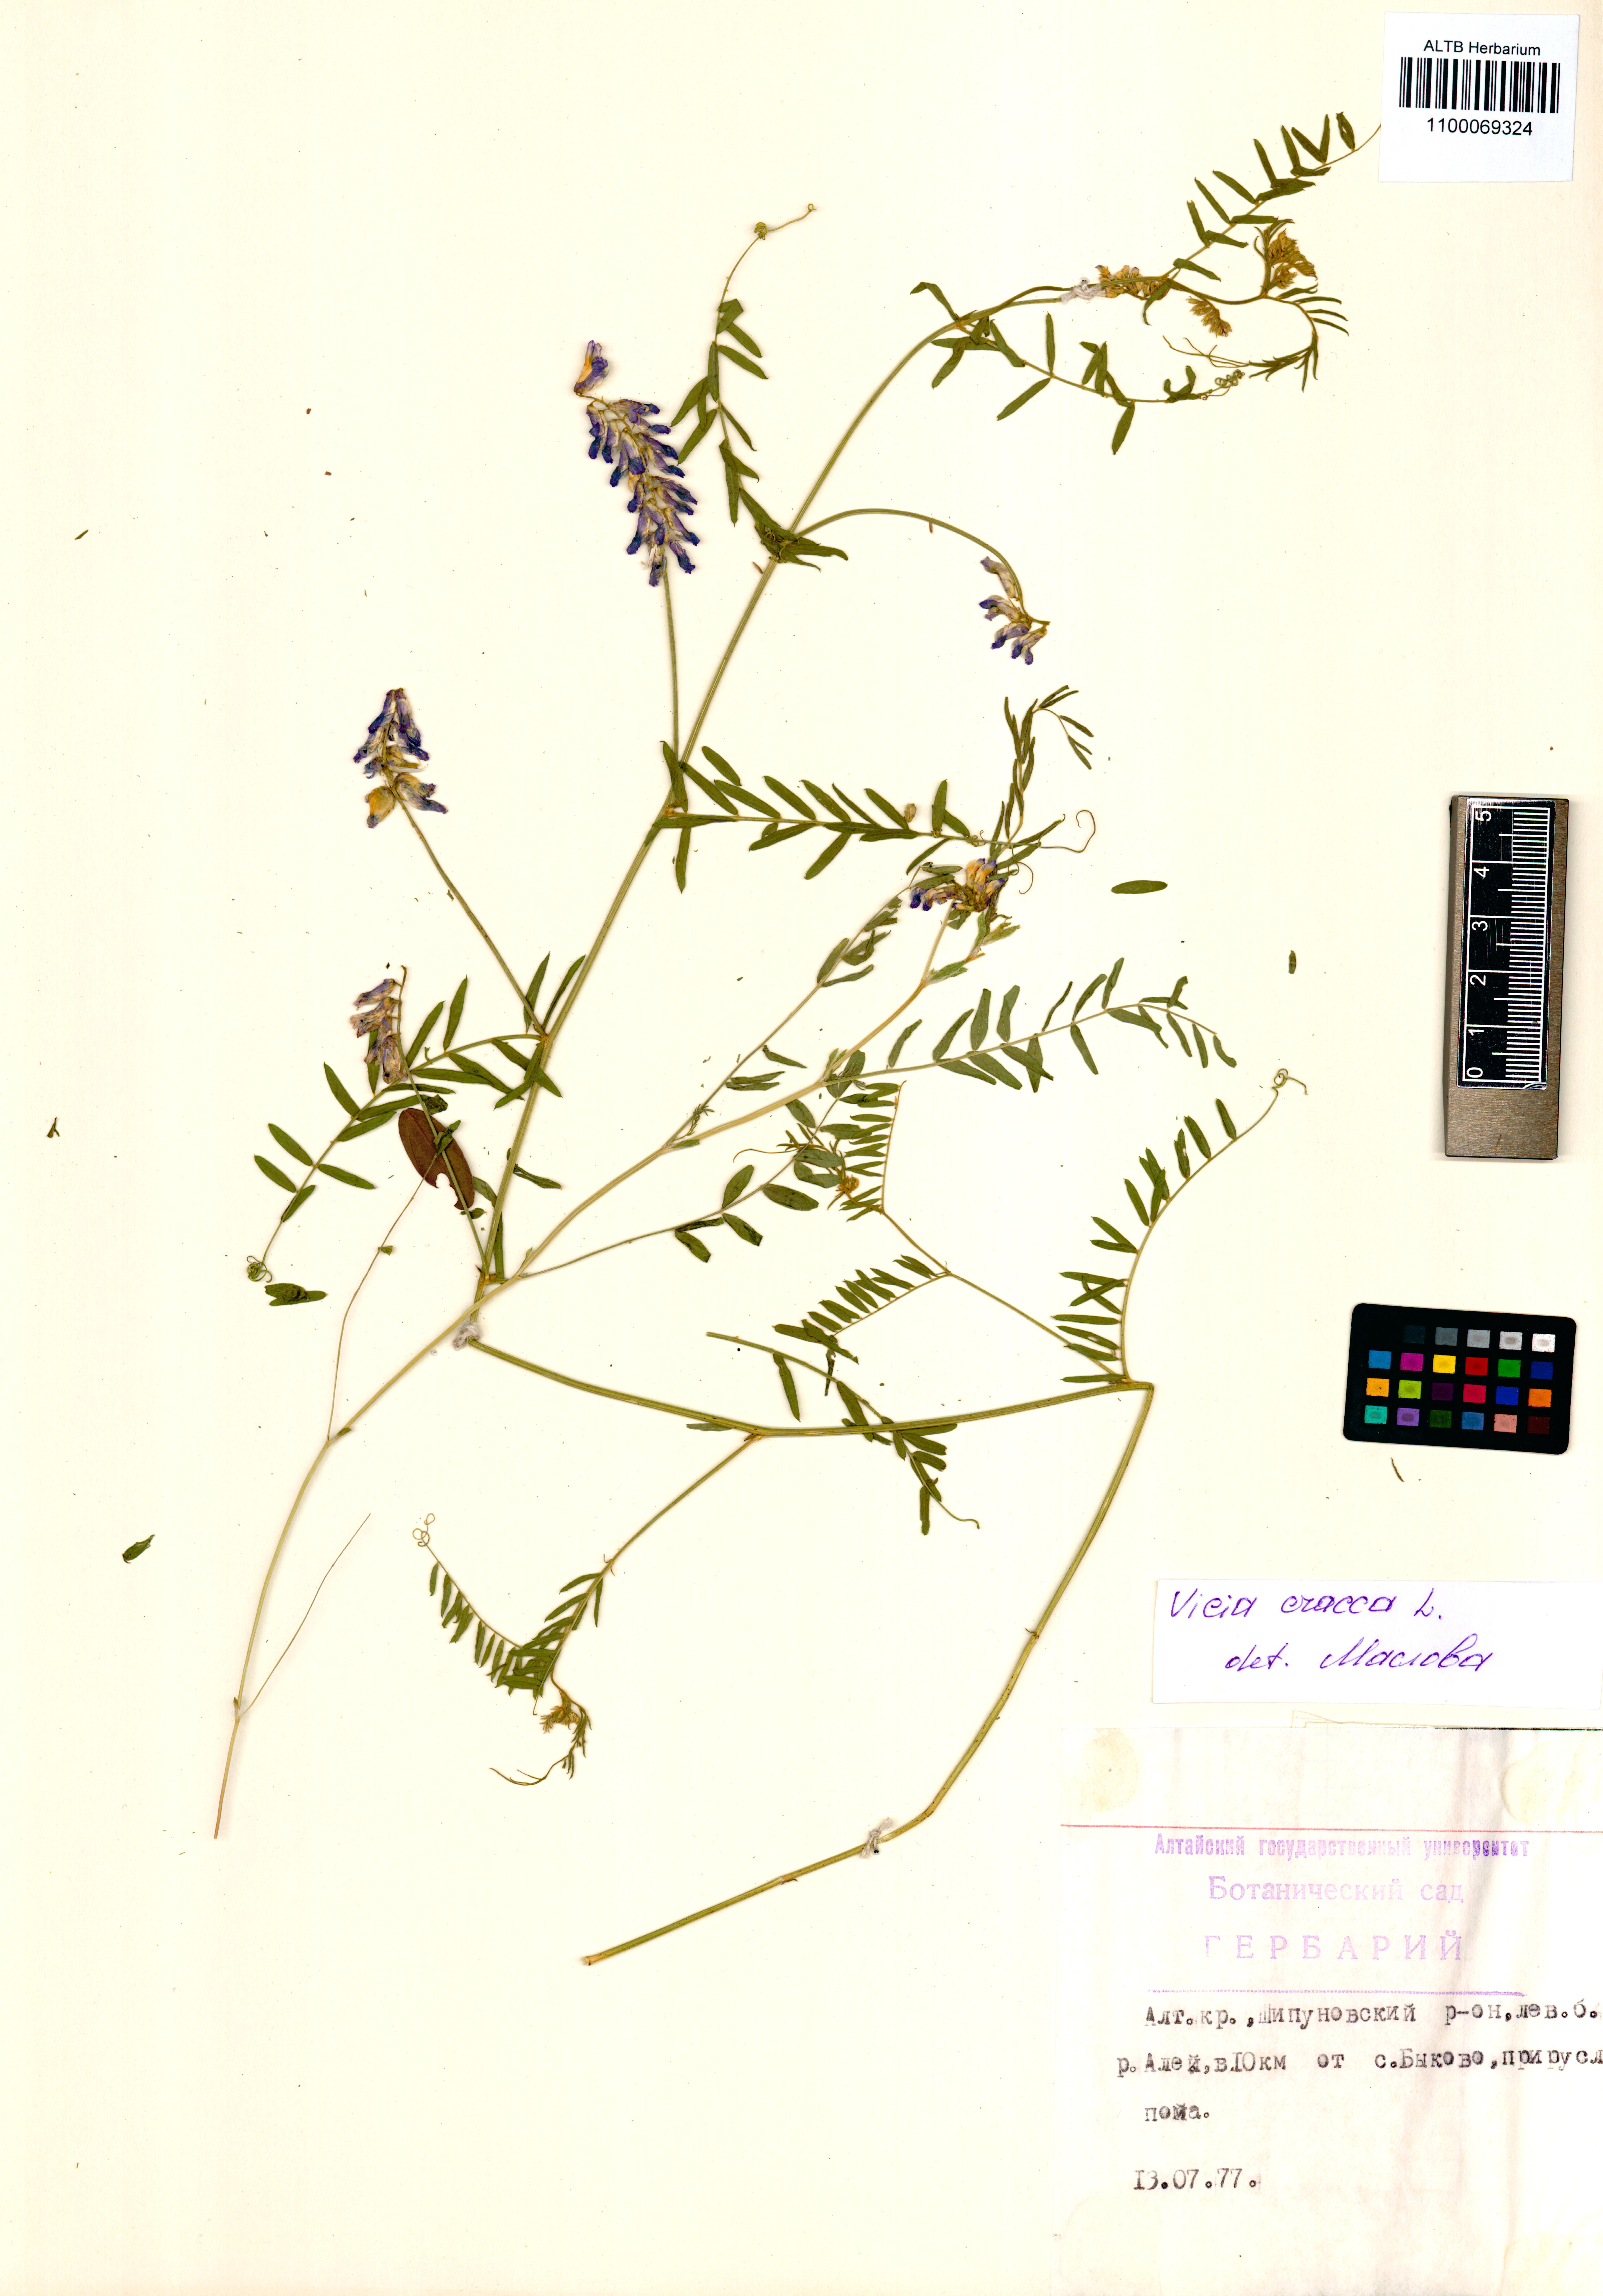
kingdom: Plantae
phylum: Tracheophyta
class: Magnoliopsida
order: Fabales
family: Fabaceae
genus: Vicia
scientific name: Vicia cracca
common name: Bird vetch
